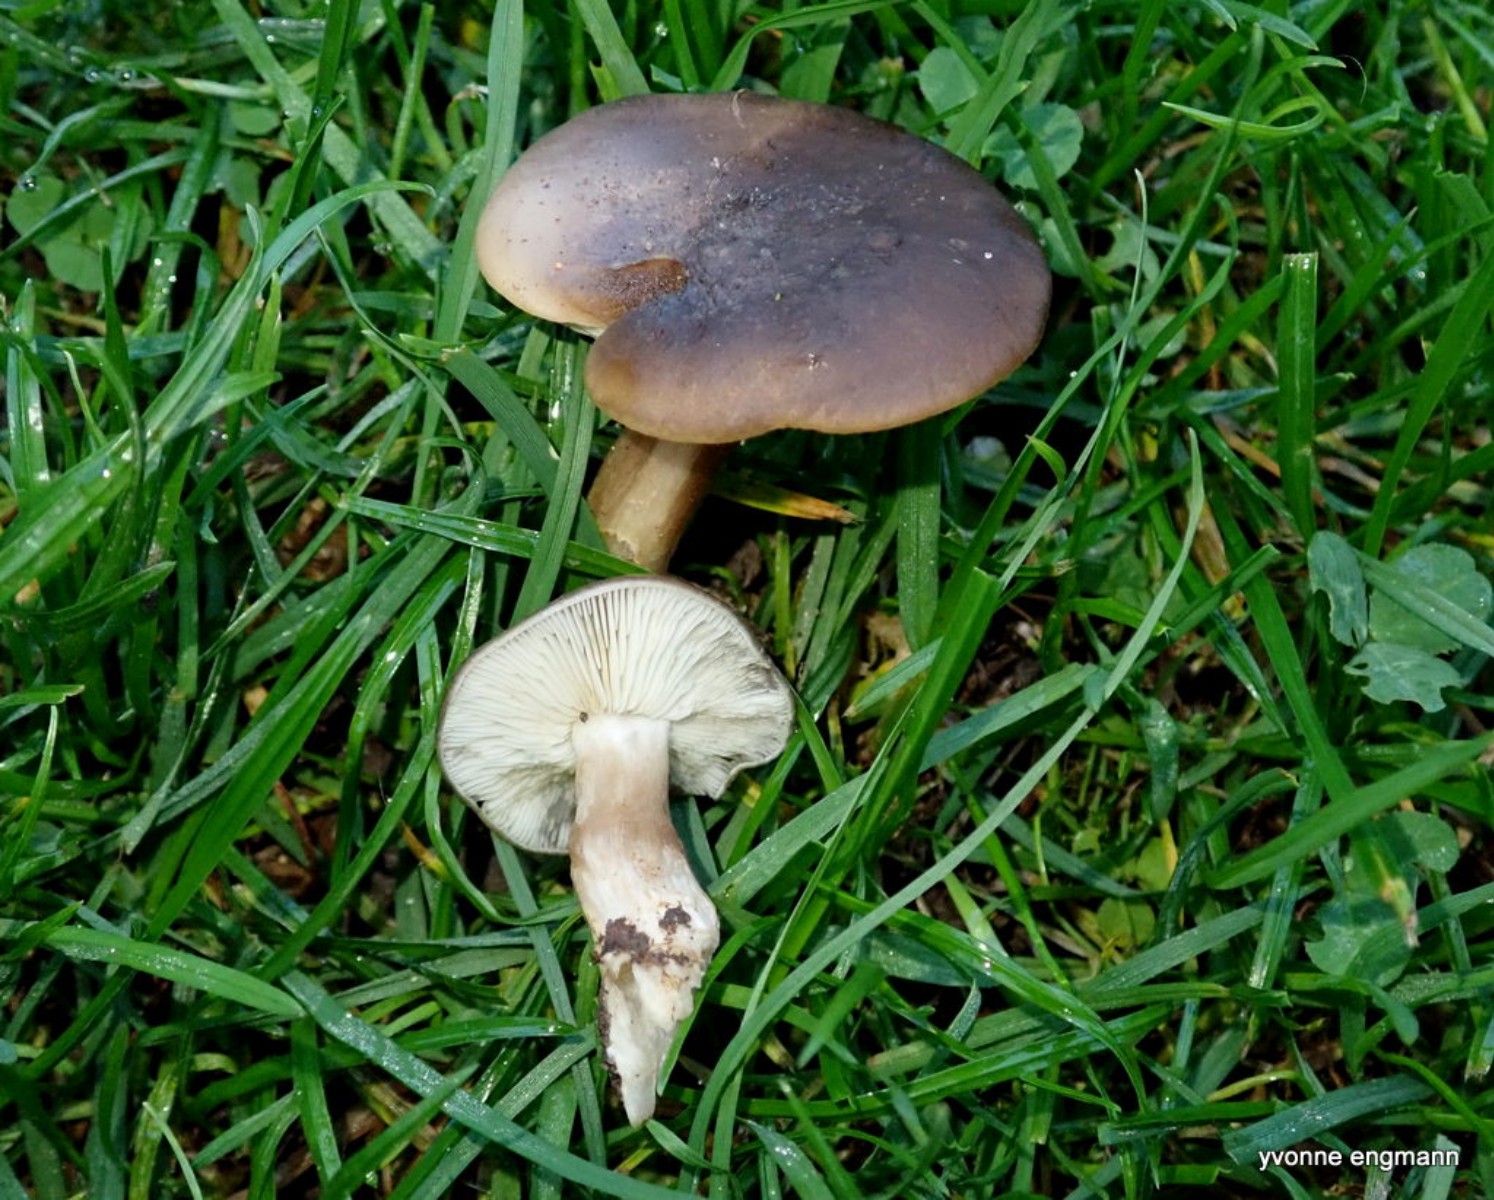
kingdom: Fungi
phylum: Basidiomycota
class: Agaricomycetes
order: Agaricales
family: Lyophyllaceae
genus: Lyophyllum
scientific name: Lyophyllum decastes
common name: Clustered domecap
